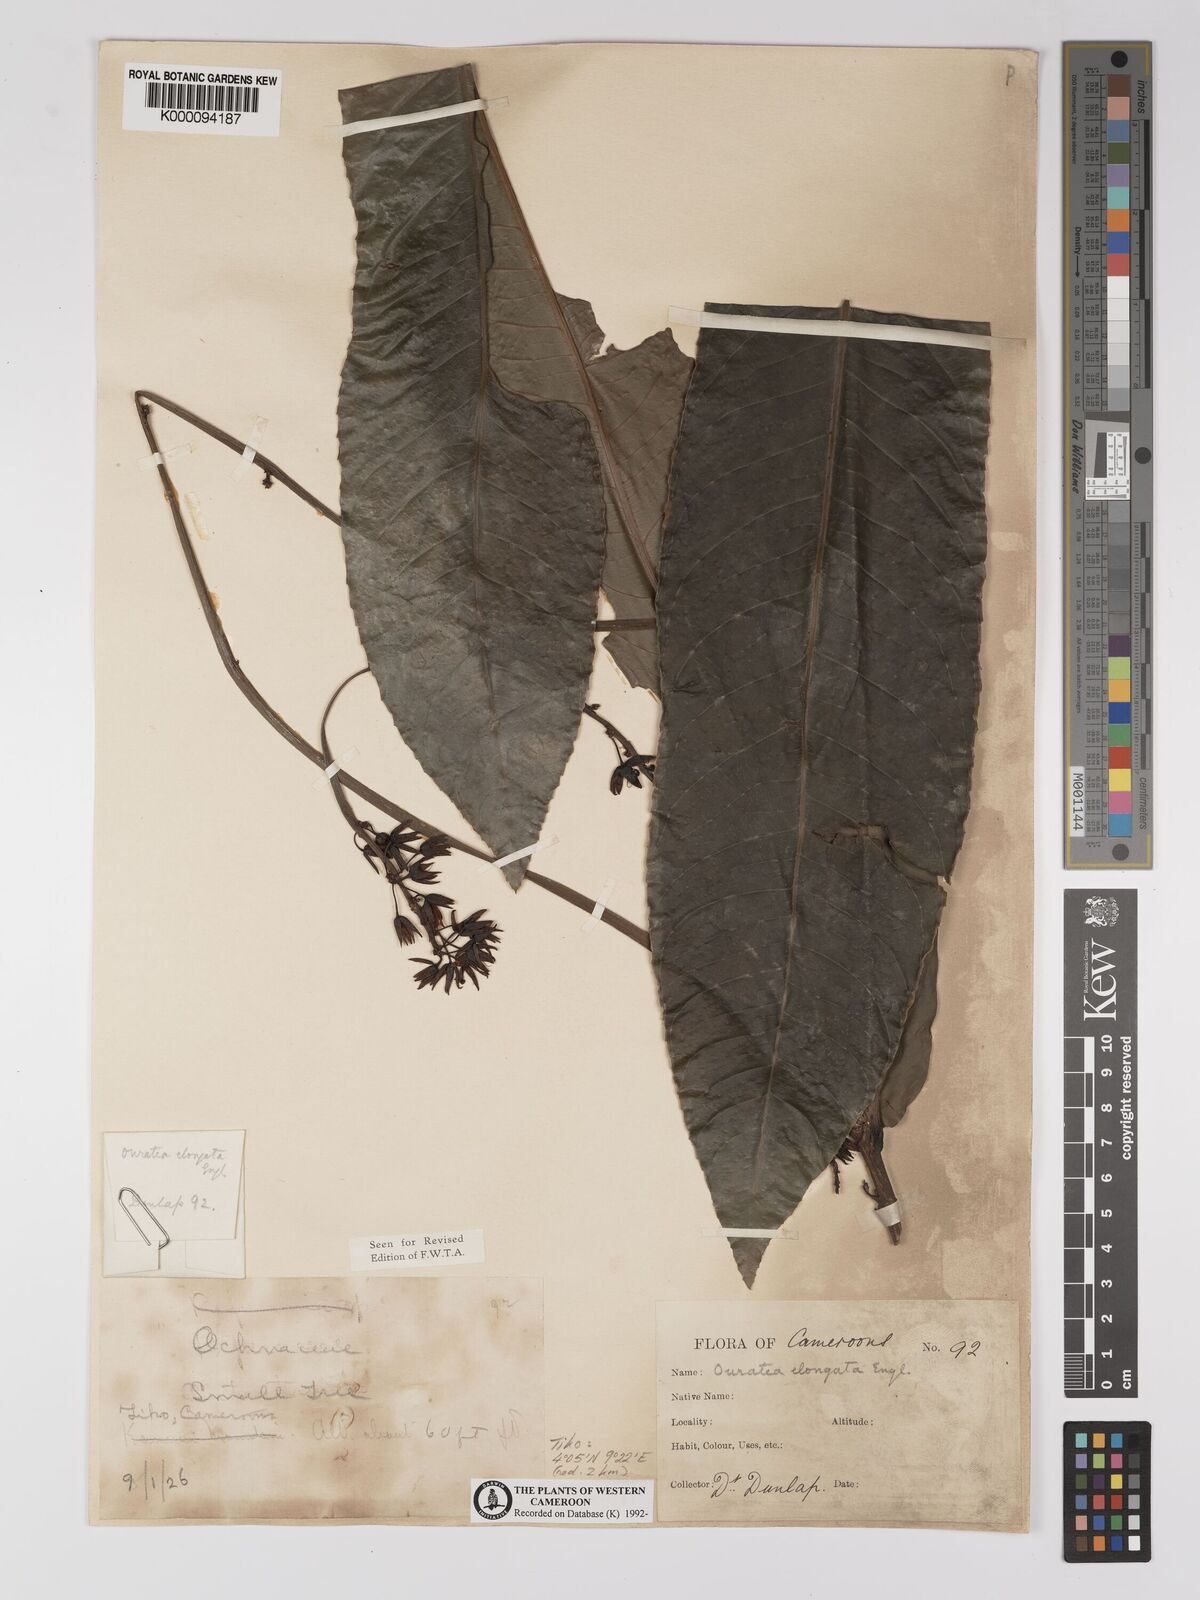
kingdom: Plantae
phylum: Tracheophyta
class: Magnoliopsida
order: Malpighiales
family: Ochnaceae
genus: Gomphia
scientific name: Gomphia elongata
